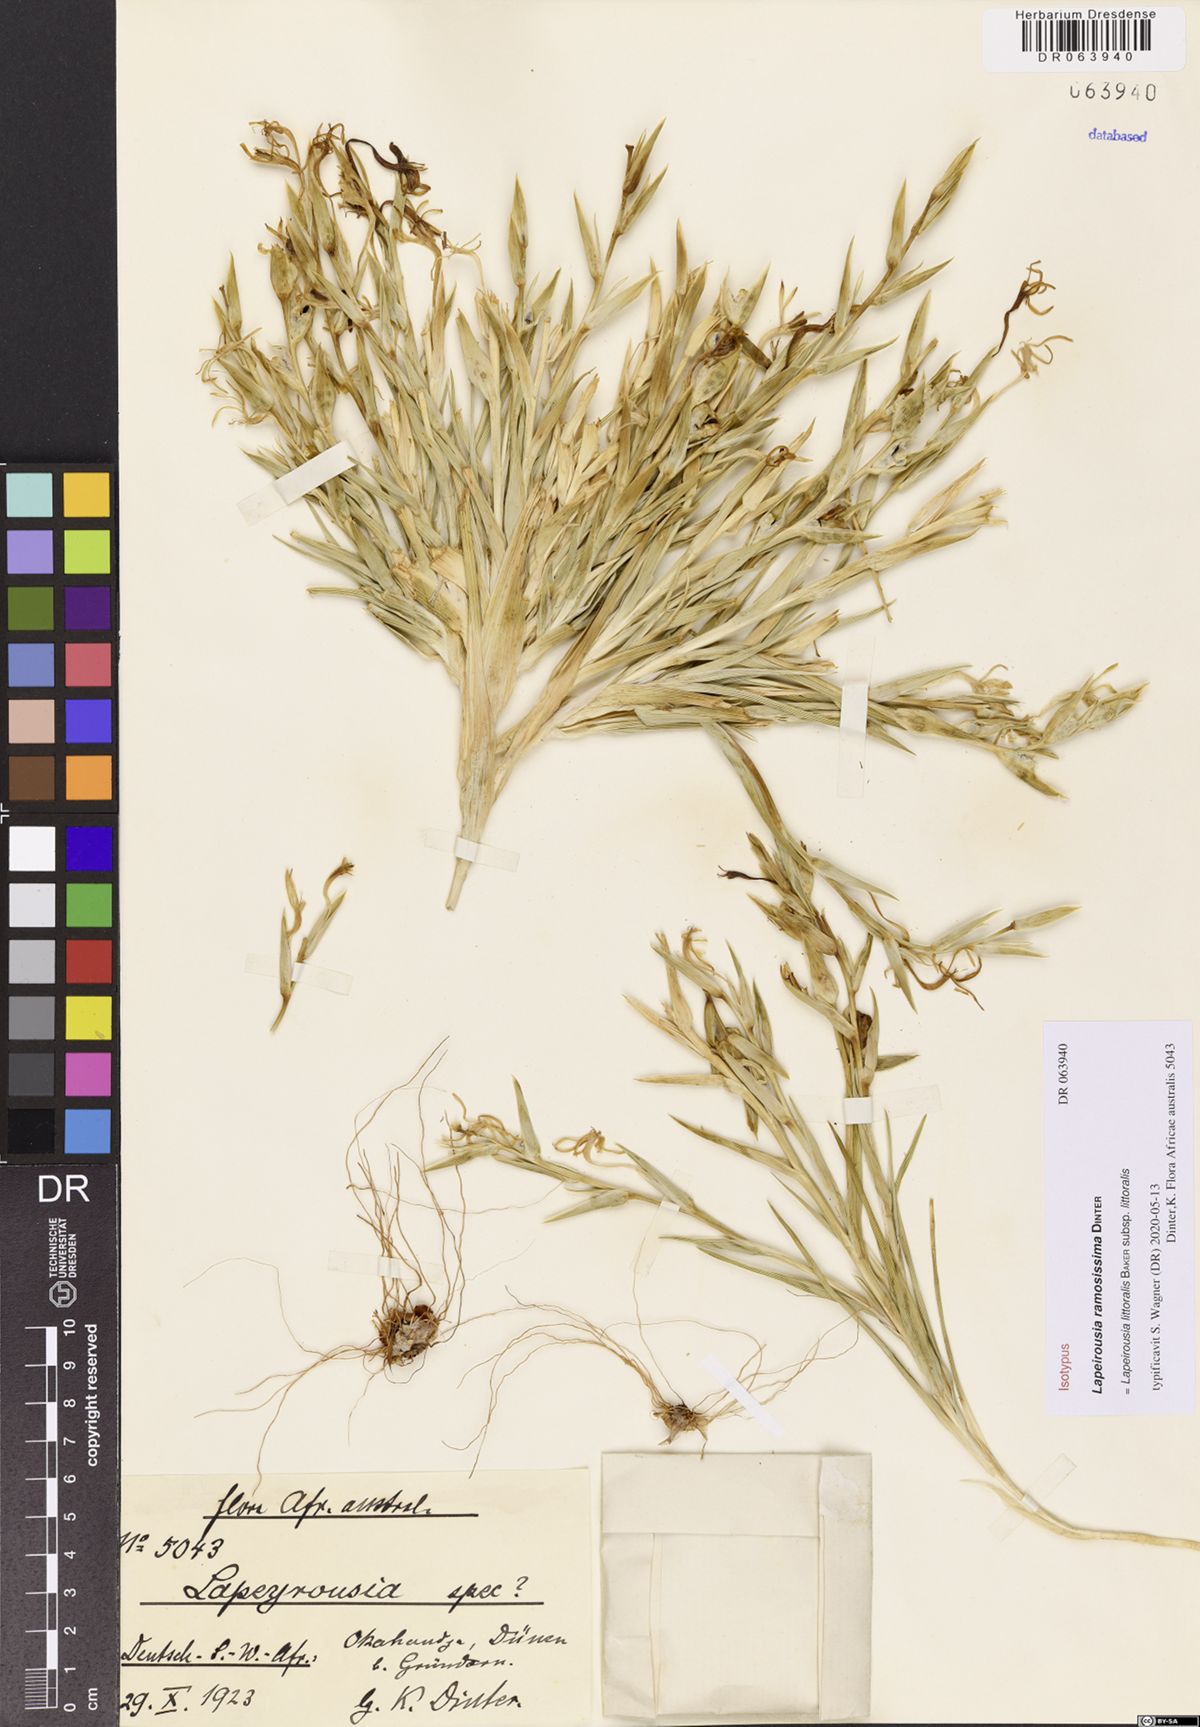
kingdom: Plantae
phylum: Tracheophyta
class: Liliopsida
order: Asparagales
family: Iridaceae
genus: Lapeirousia
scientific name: Lapeirousia littoralis
